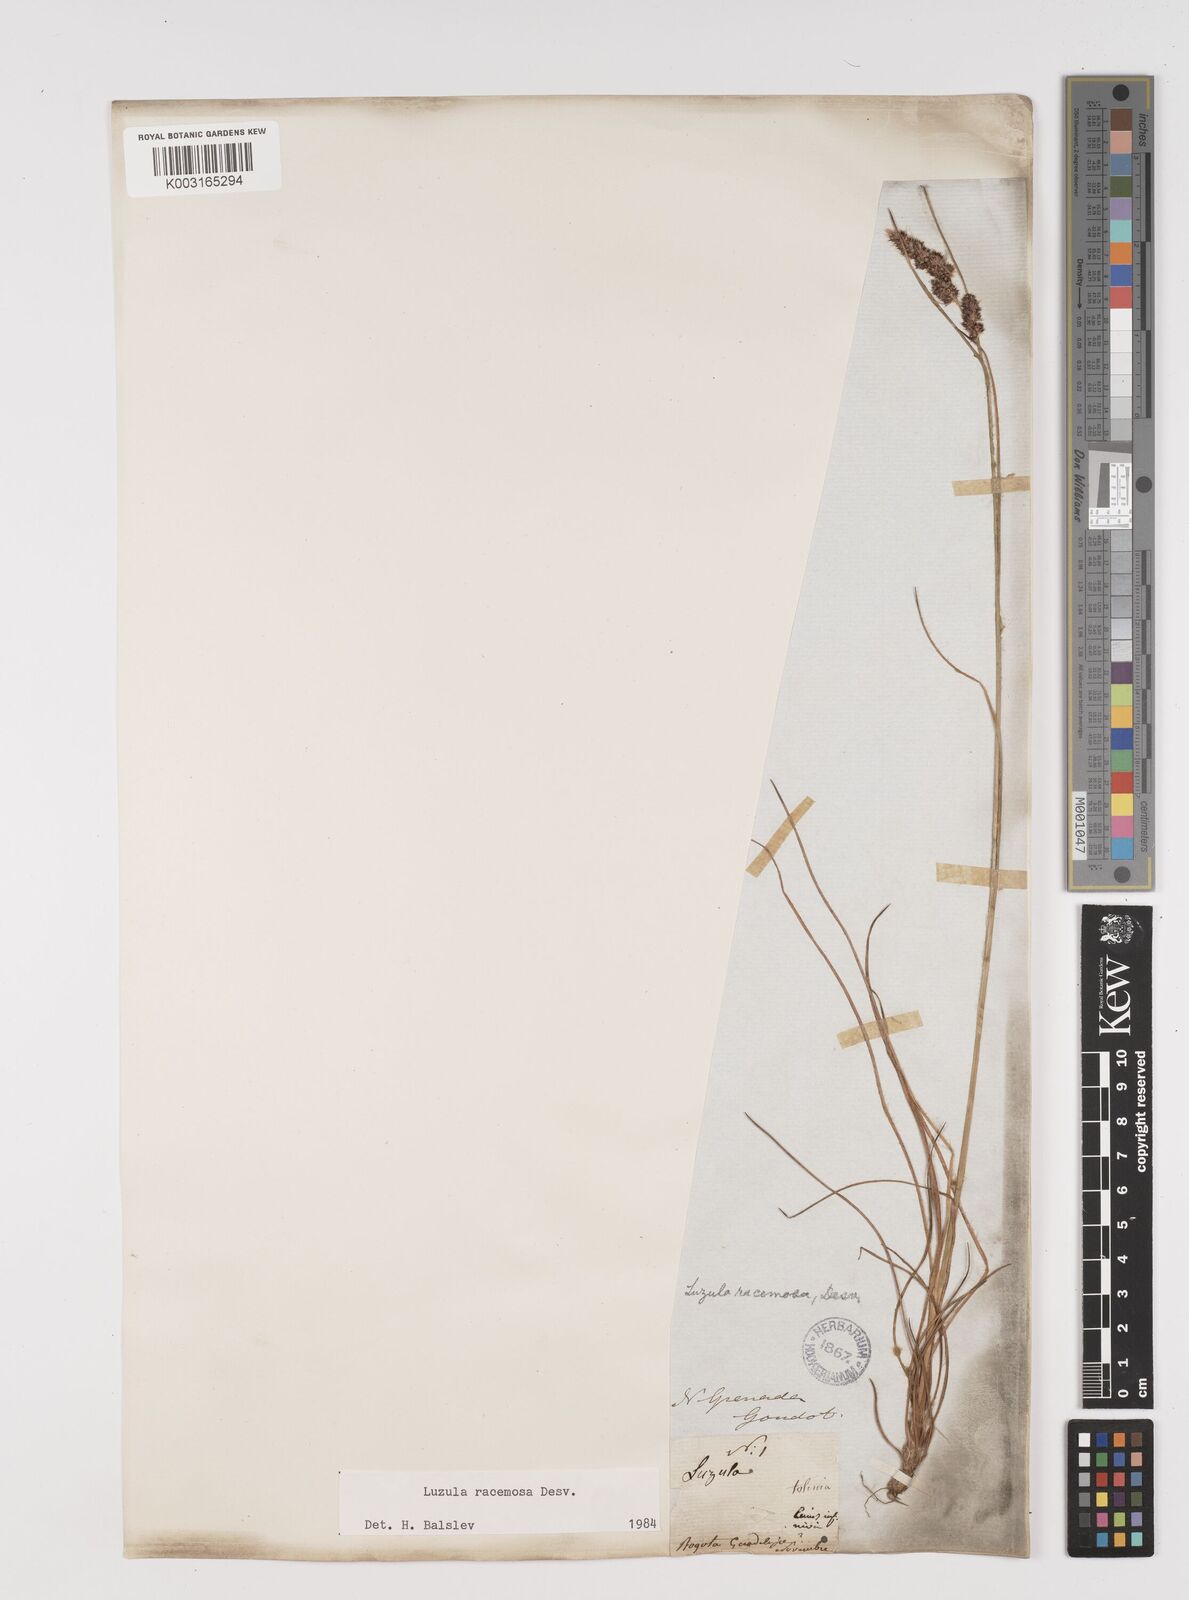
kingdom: Plantae
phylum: Tracheophyta
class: Liliopsida
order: Poales
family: Juncaceae
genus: Luzula
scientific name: Luzula racemosa
